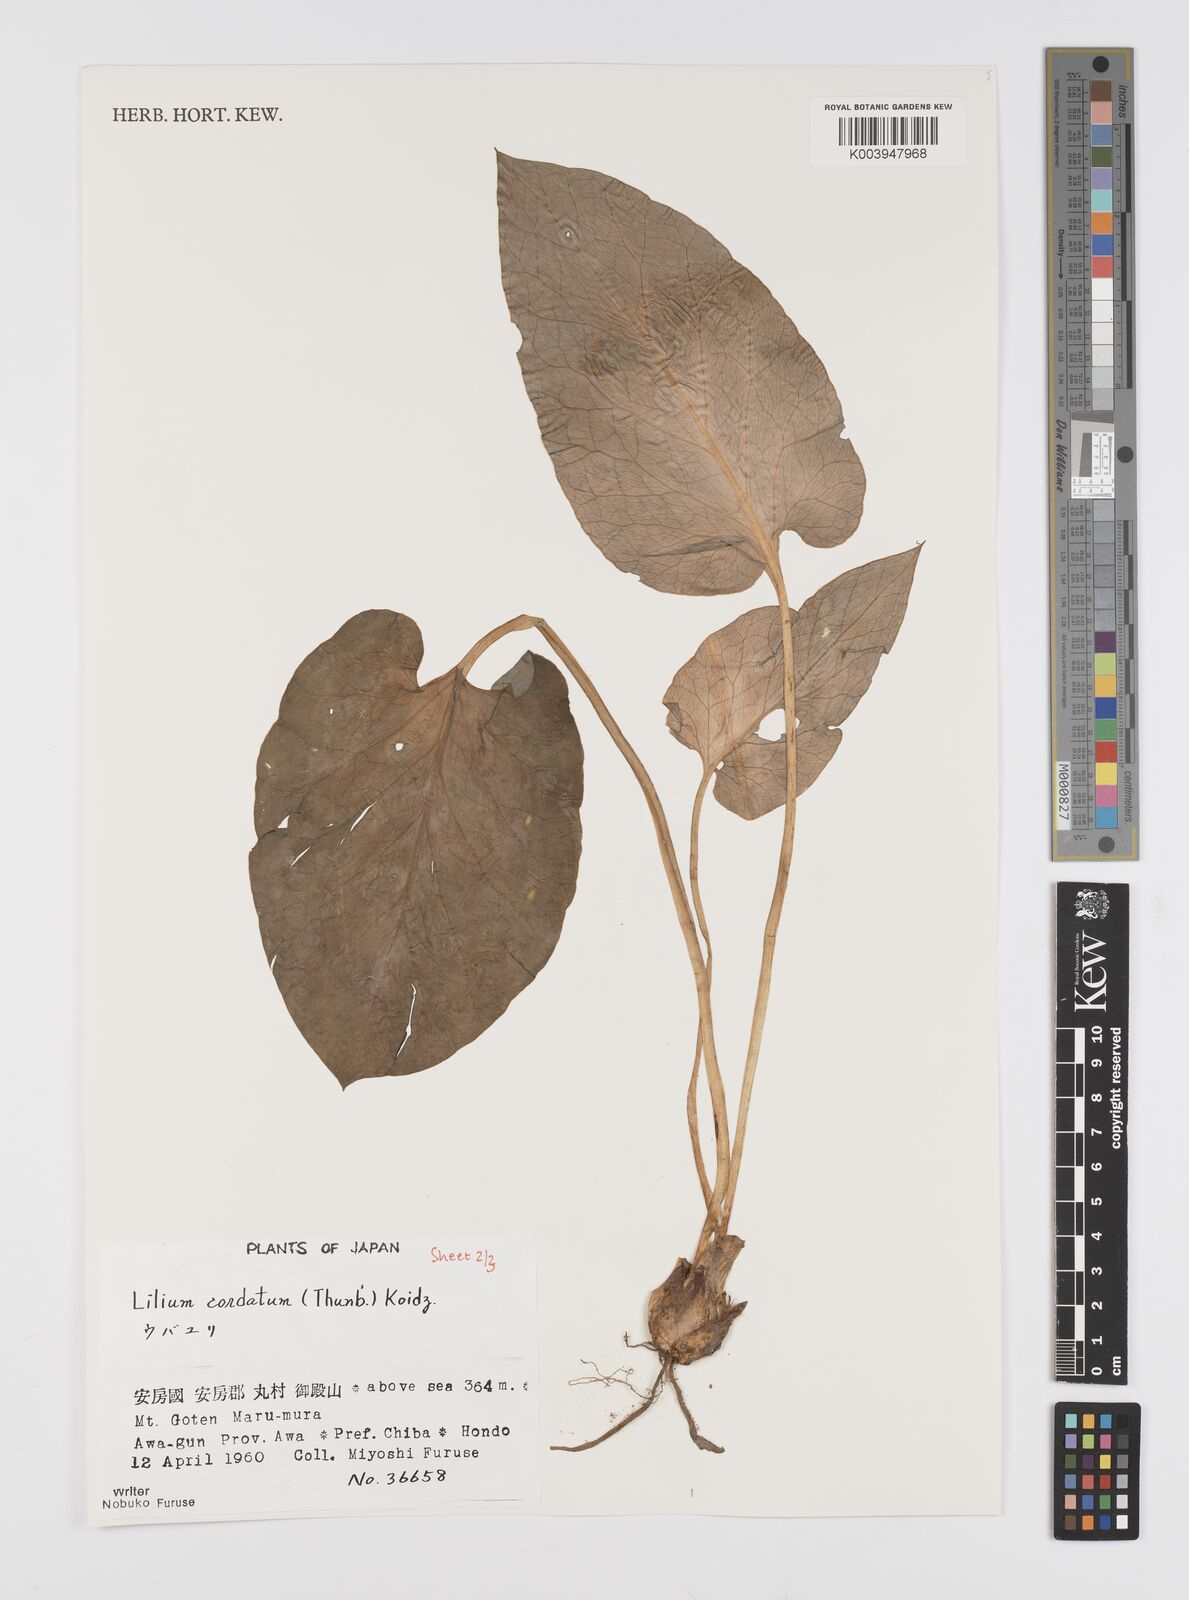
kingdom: Plantae
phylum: Tracheophyta
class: Liliopsida
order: Liliales
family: Liliaceae
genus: Cardiocrinum
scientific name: Cardiocrinum cordatum
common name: Lily
